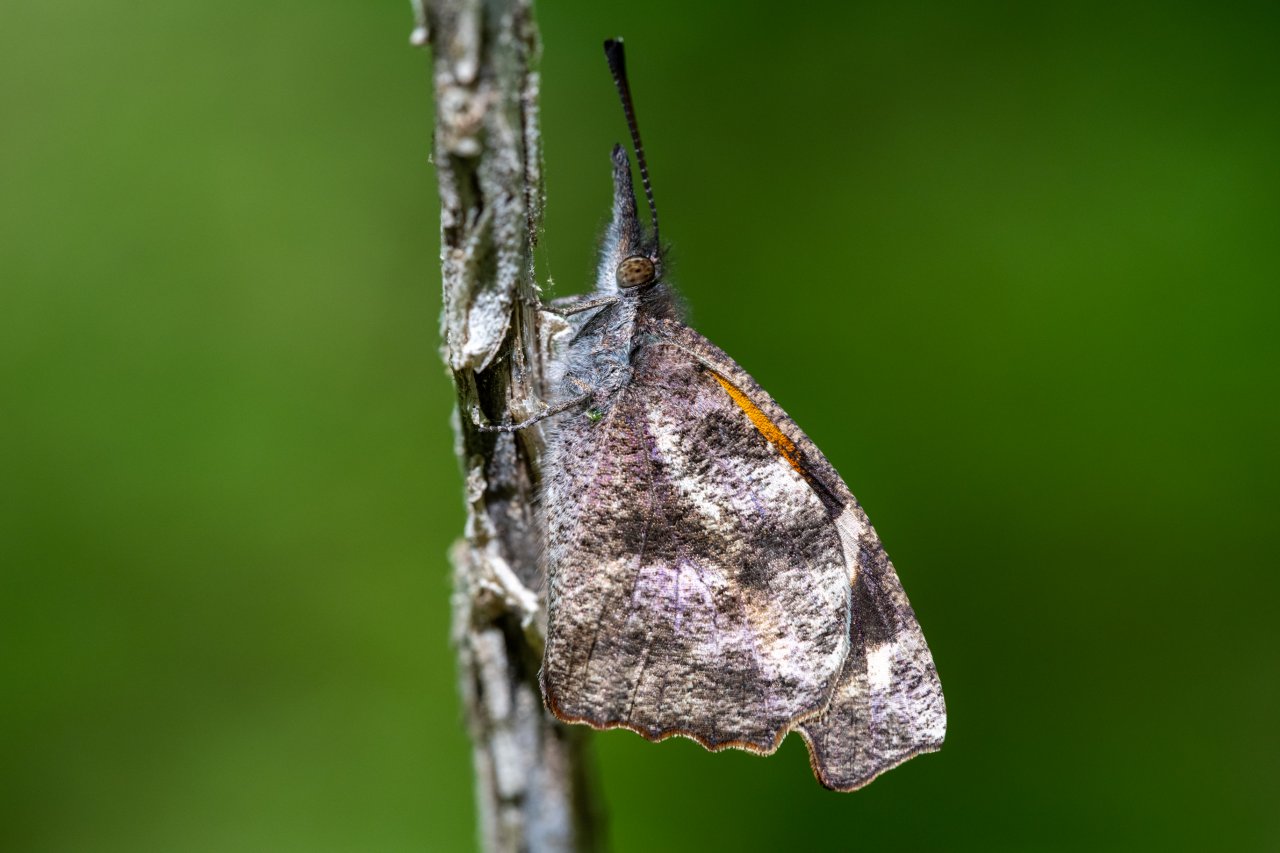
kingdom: Animalia
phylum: Arthropoda
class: Insecta
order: Lepidoptera
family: Nymphalidae
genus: Libytheana
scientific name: Libytheana carinenta
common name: American Snout
